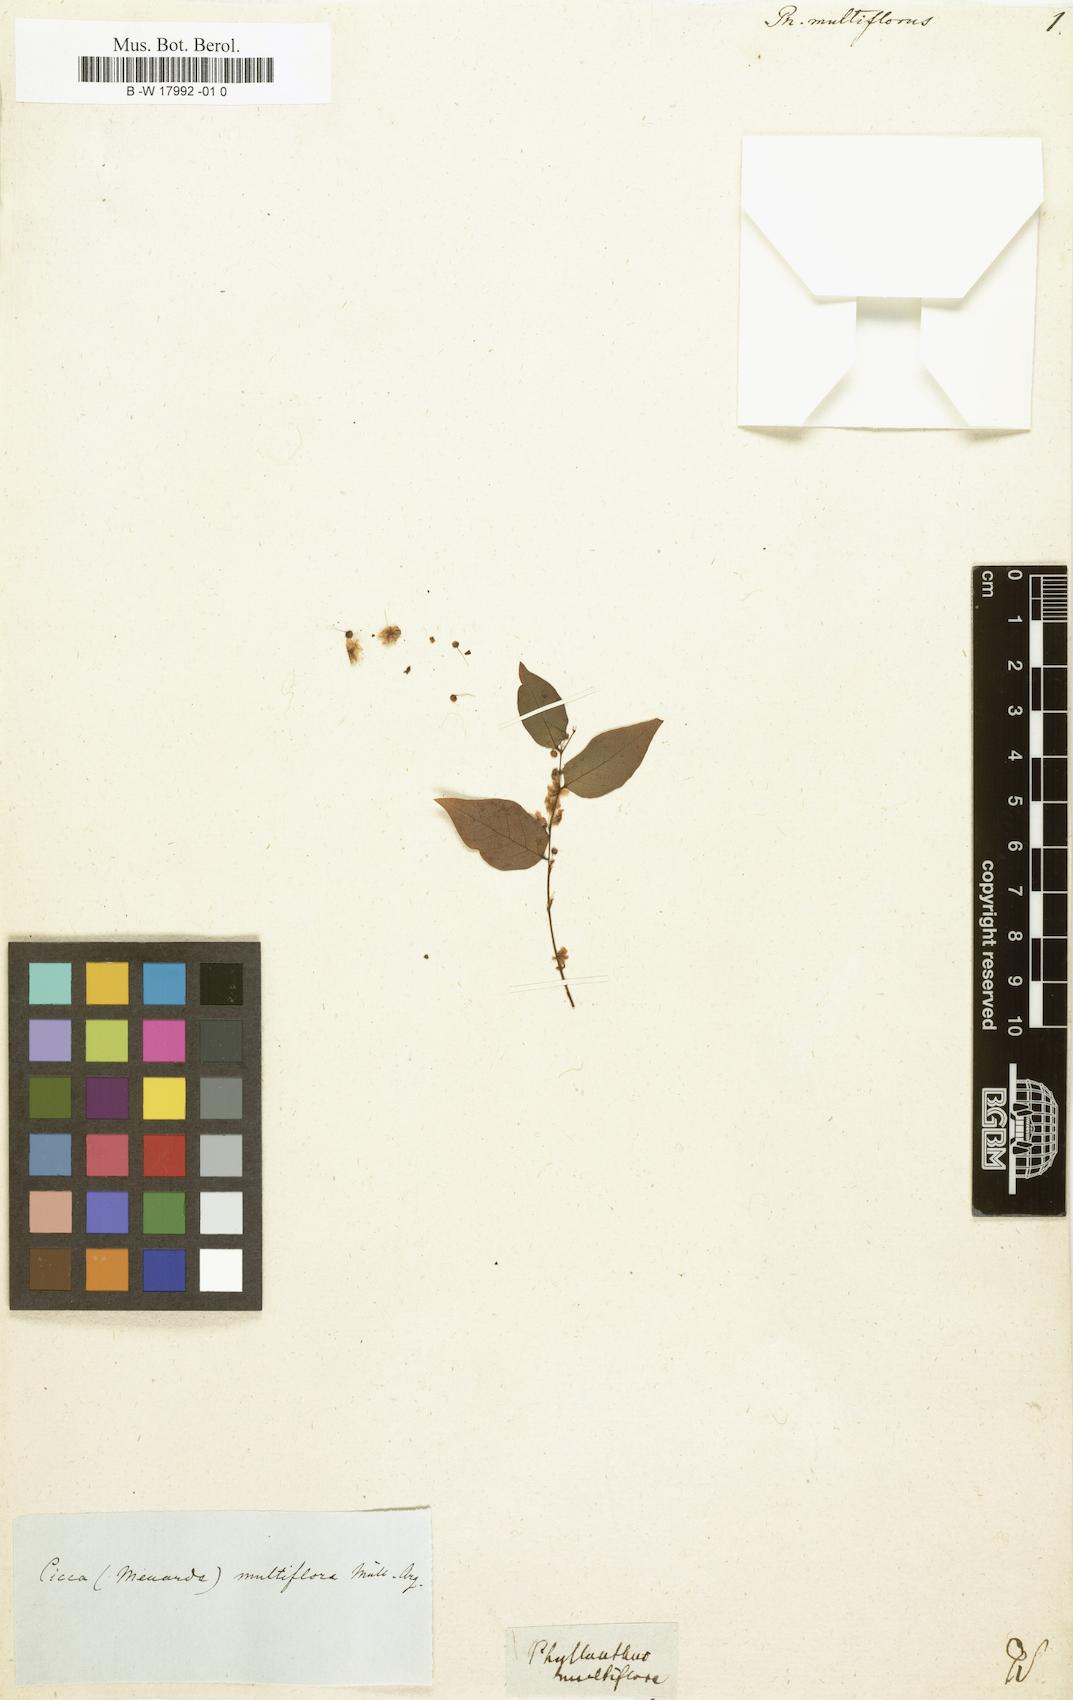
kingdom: Plantae
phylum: Tracheophyta
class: Magnoliopsida
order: Malpighiales
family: Phyllanthaceae
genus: Phyllanthus
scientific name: Phyllanthus multiflorus
